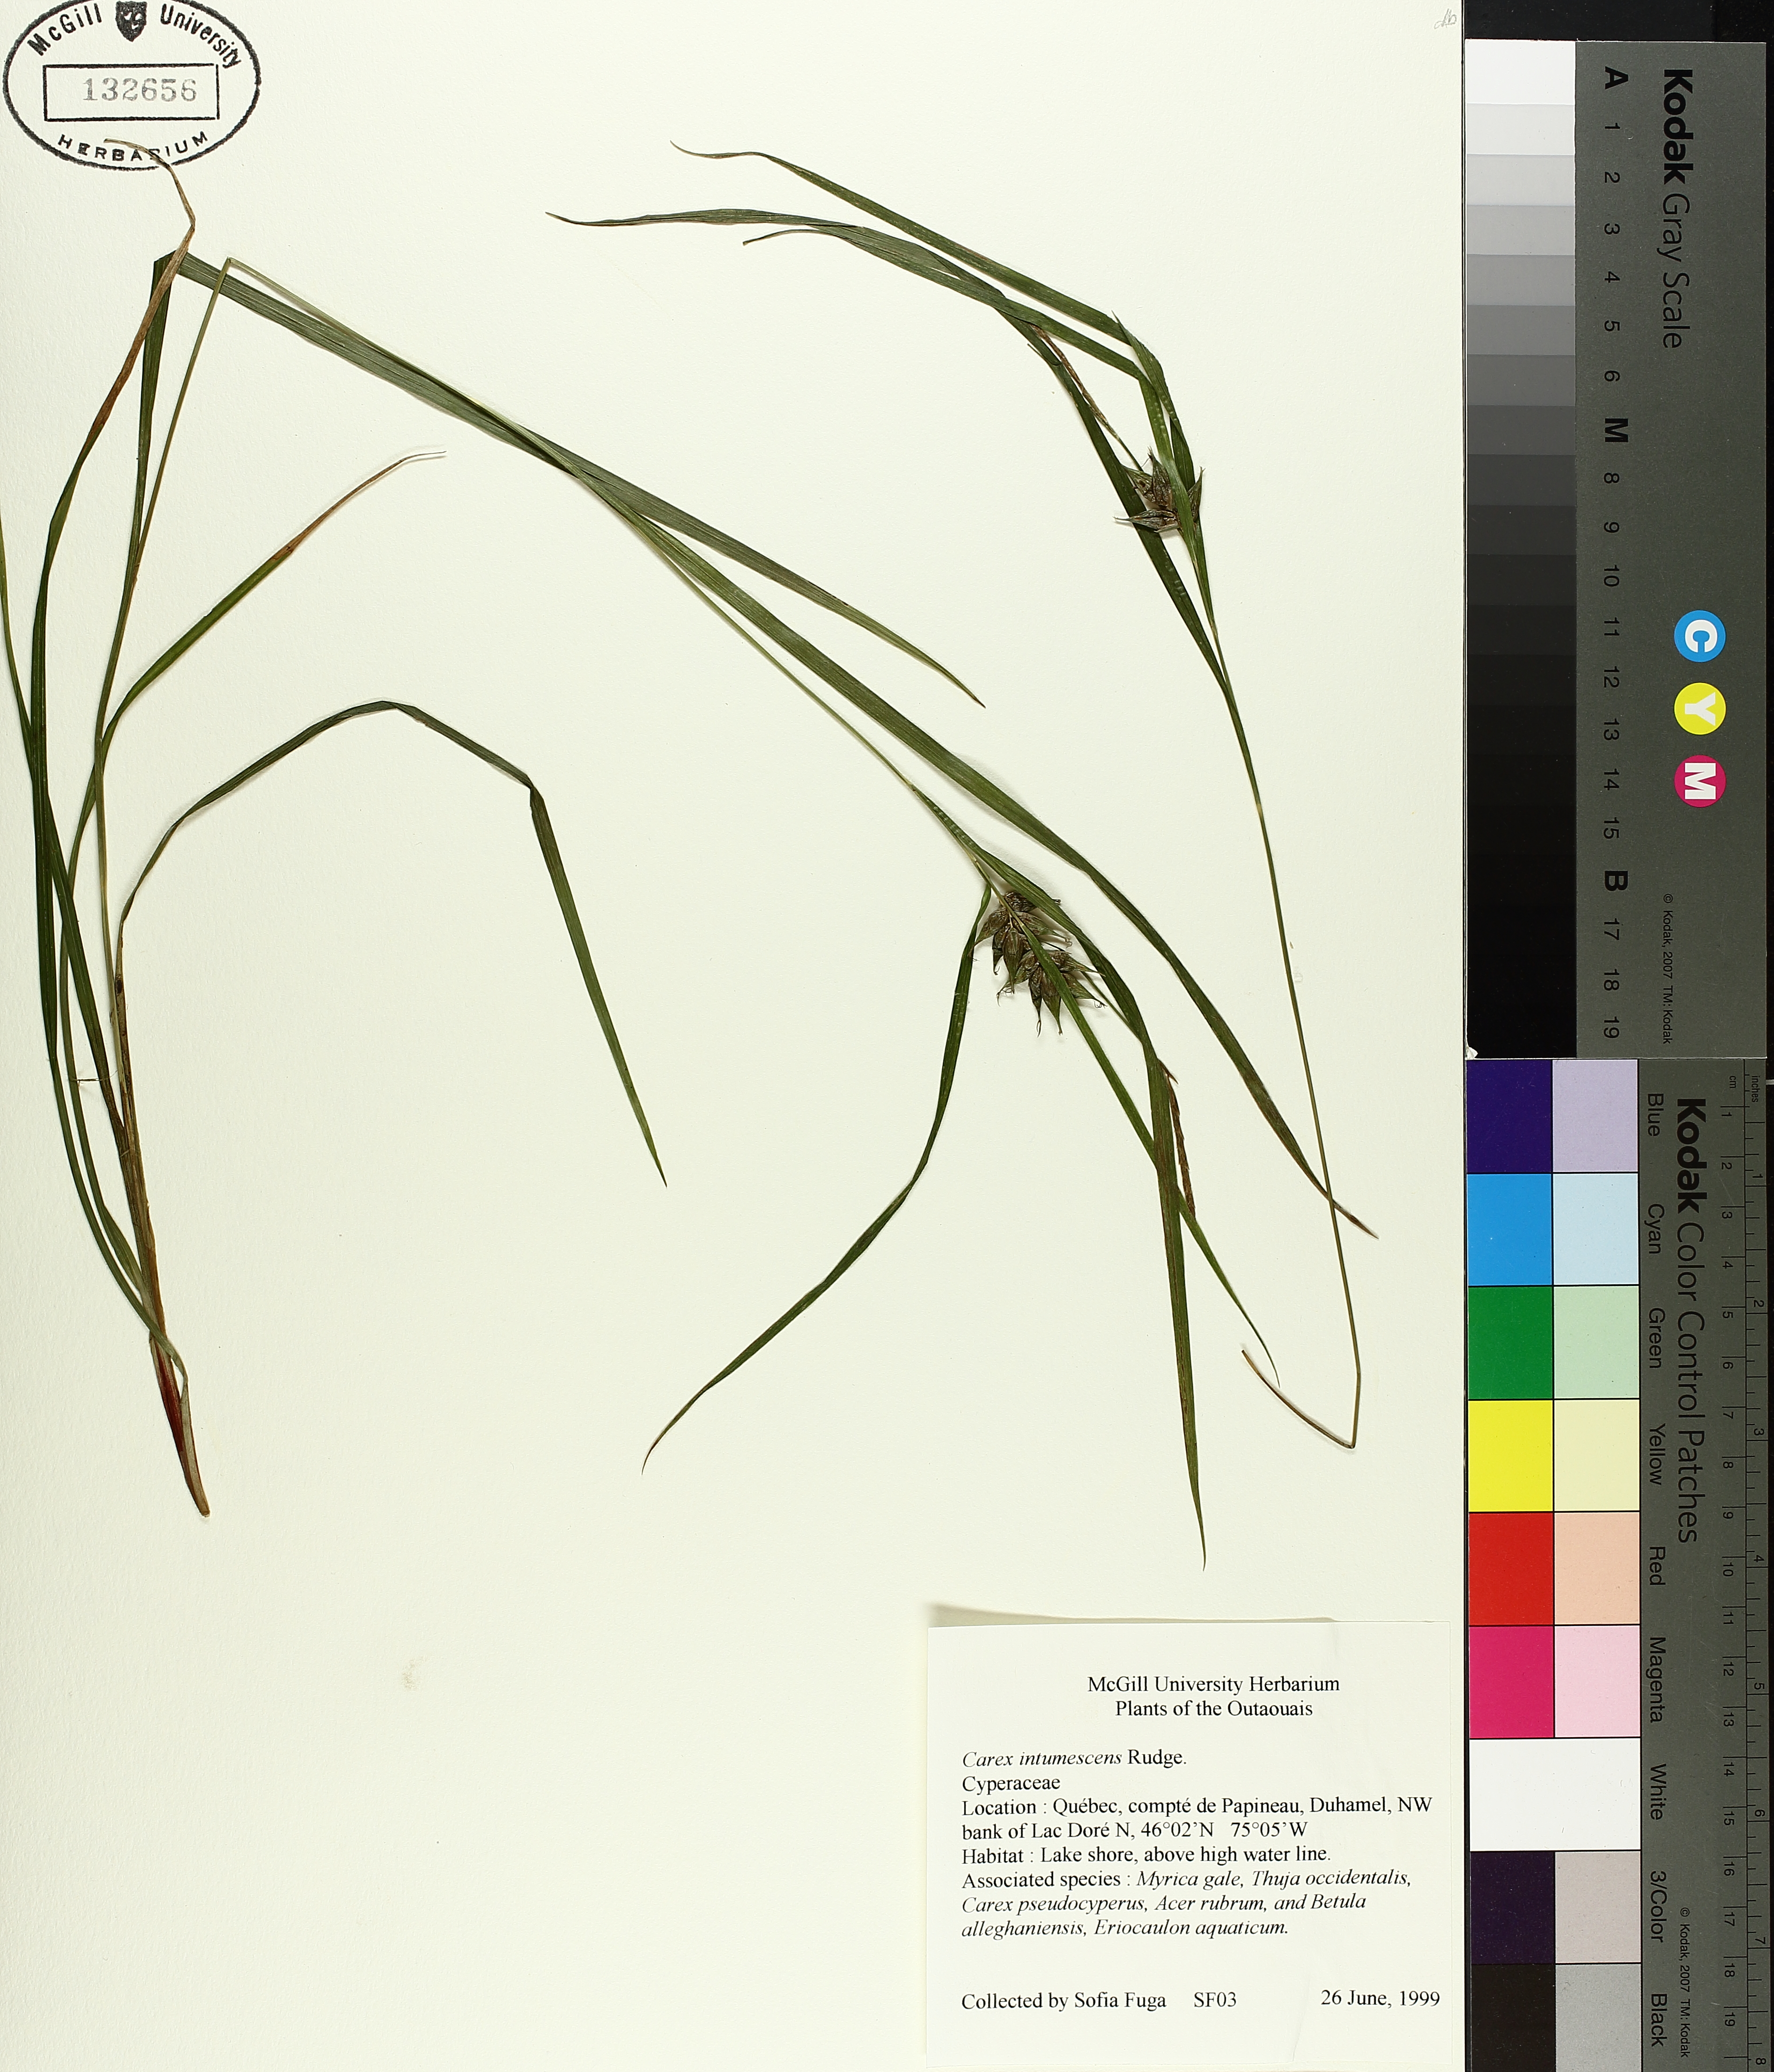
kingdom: Plantae
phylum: Tracheophyta
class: Liliopsida
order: Poales
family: Cyperaceae
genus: Carex
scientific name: Carex intumescens
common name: Greater bladder sedge
